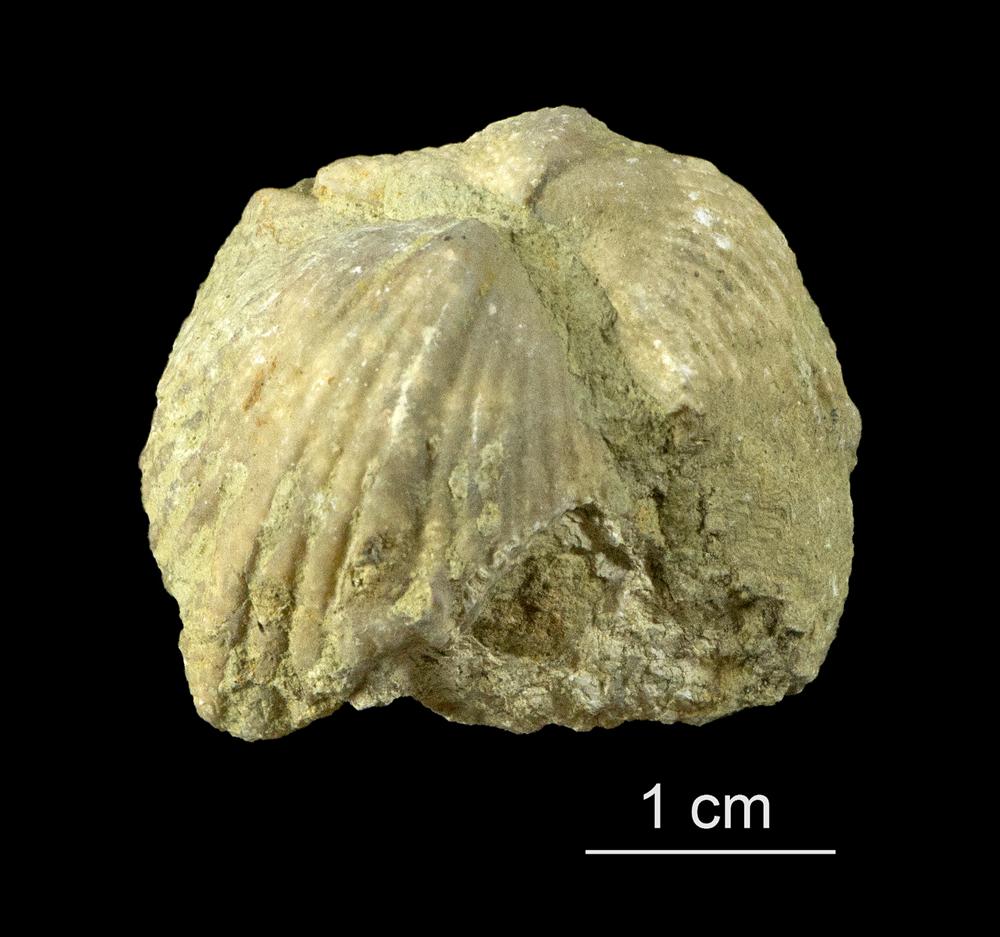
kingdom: Animalia
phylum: Brachiopoda
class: Rhynchonellata
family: Platystrophiidae
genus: Neoplatystrophia
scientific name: Neoplatystrophia Platystrophia lynx
